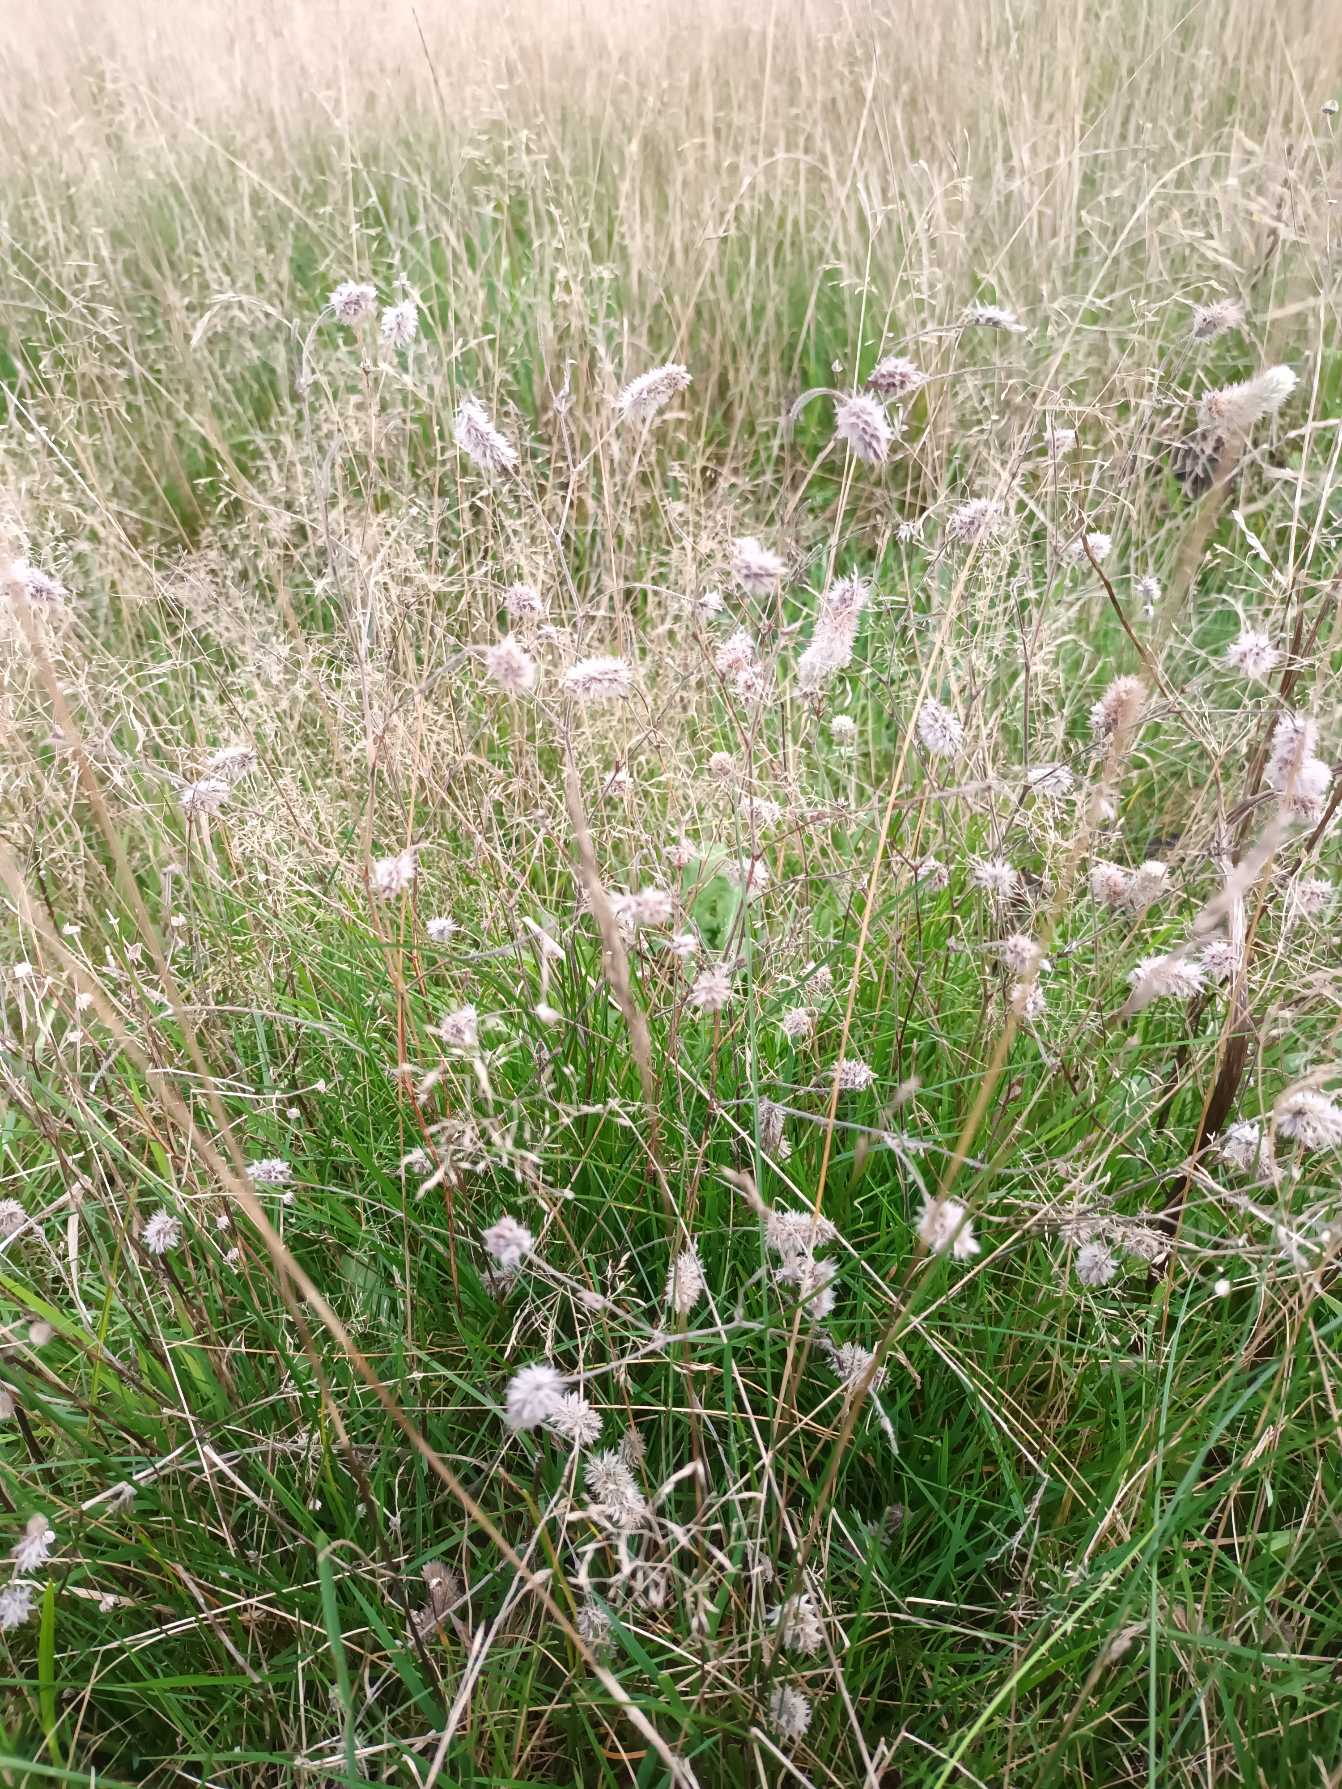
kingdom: Plantae
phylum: Tracheophyta
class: Magnoliopsida
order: Fabales
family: Fabaceae
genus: Trifolium
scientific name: Trifolium arvense
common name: Hare-kløver
